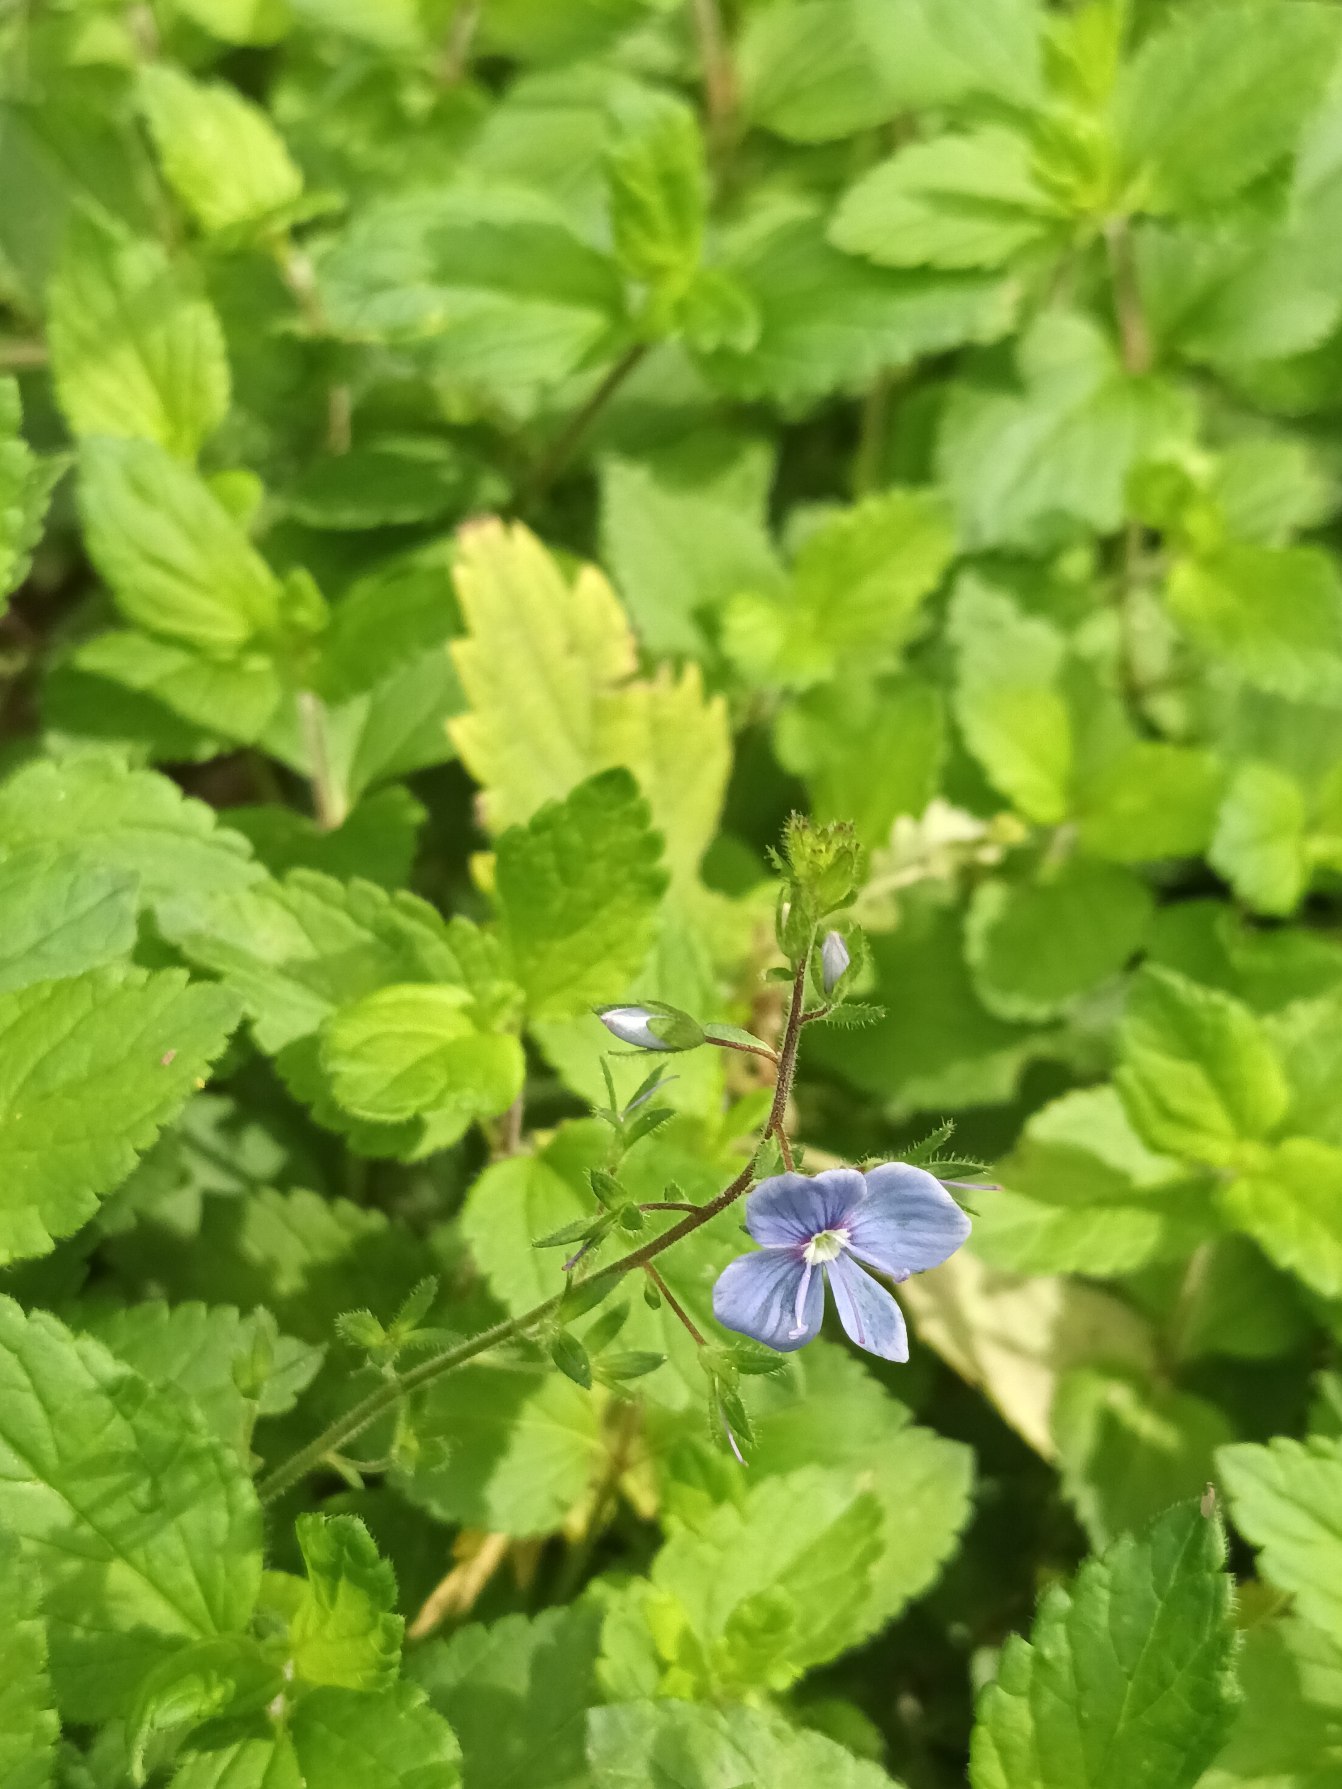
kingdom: Plantae
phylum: Tracheophyta
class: Magnoliopsida
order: Lamiales
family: Plantaginaceae
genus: Veronica
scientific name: Veronica chamaedrys
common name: Tveskægget ærenpris
